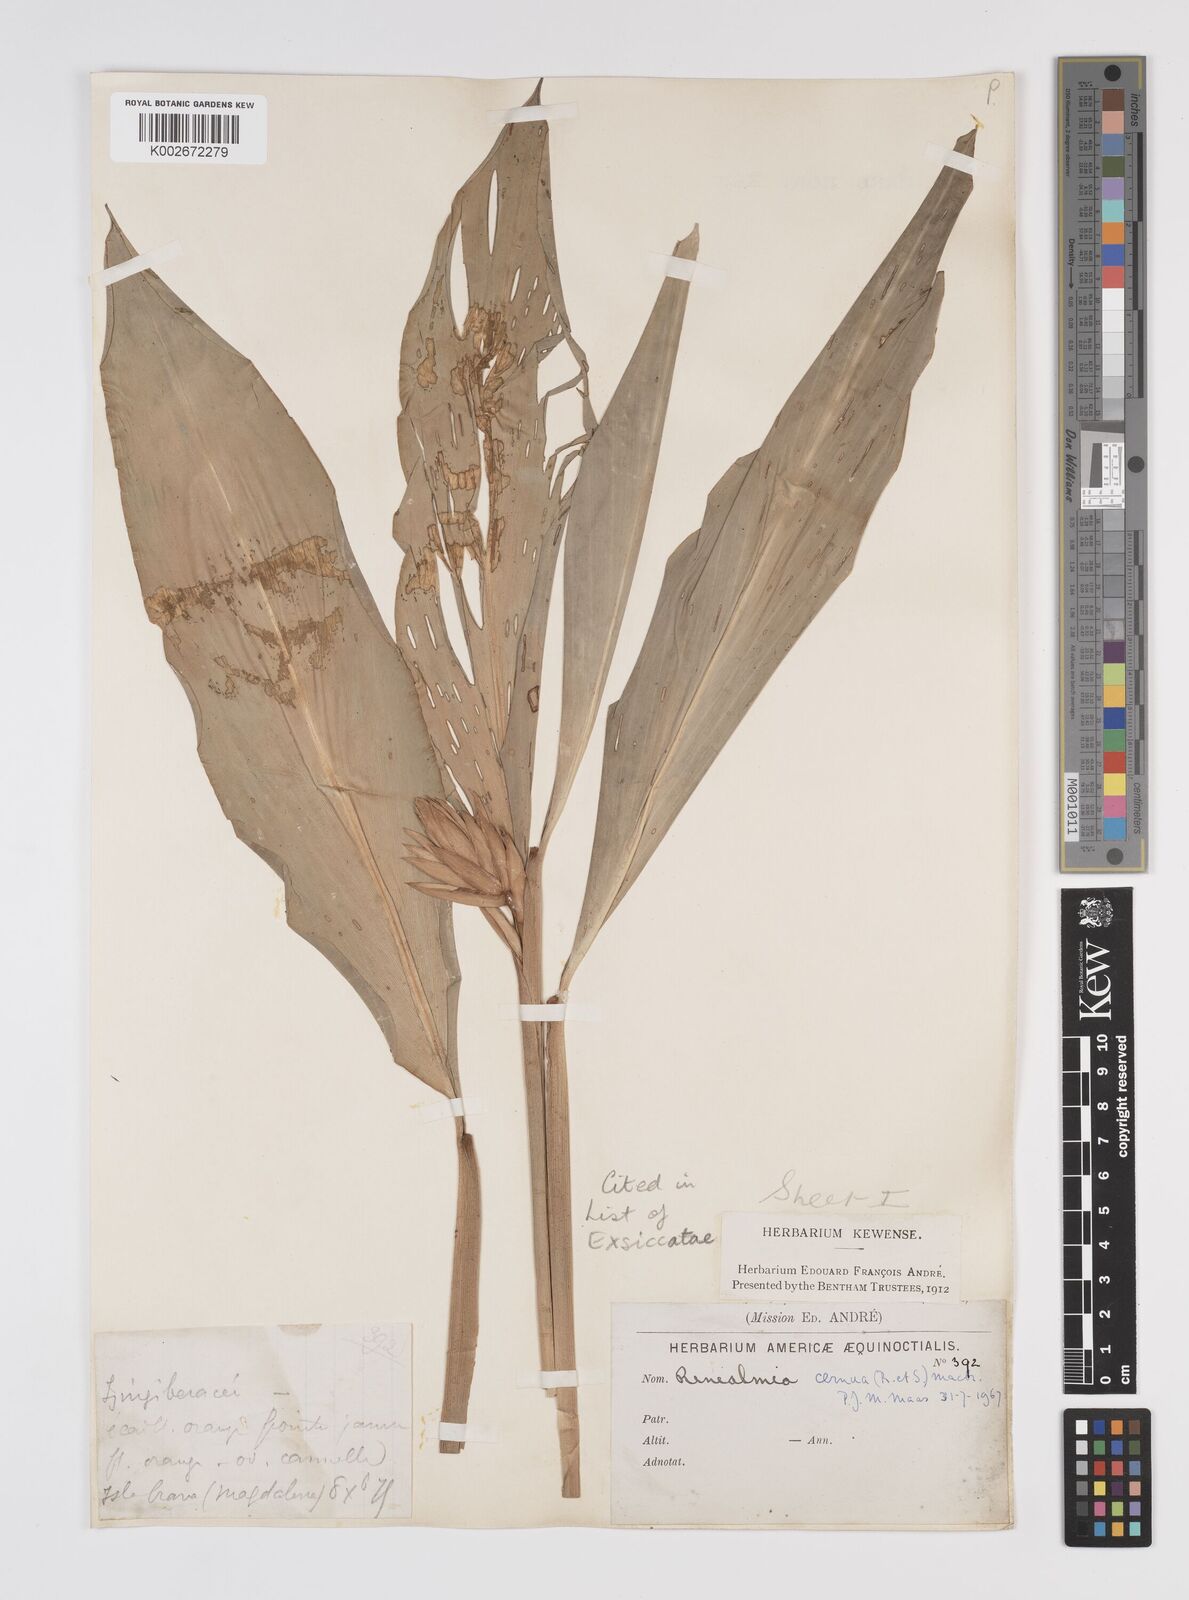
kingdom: Plantae
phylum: Tracheophyta
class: Liliopsida
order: Zingiberales
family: Zingiberaceae
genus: Renealmia
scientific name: Renealmia cernua
